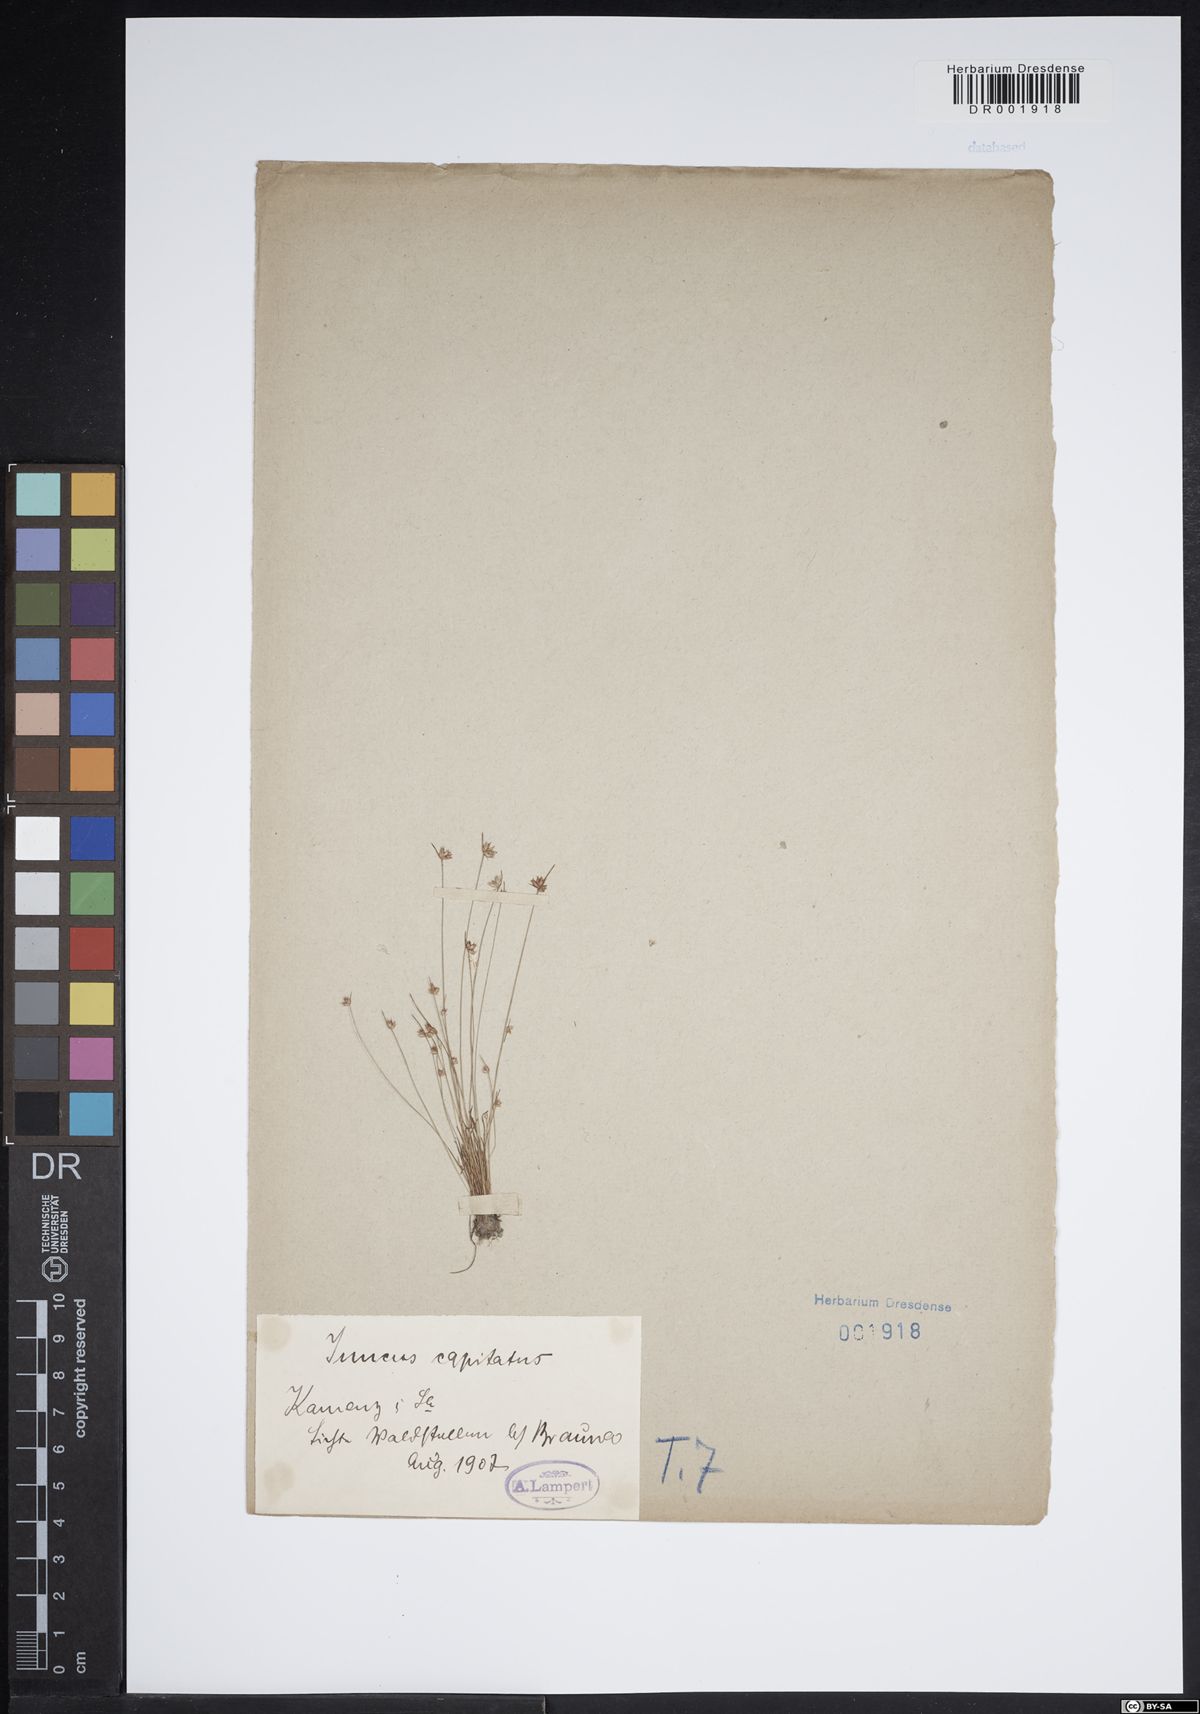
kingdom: Plantae
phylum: Tracheophyta
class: Liliopsida
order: Poales
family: Juncaceae
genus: Juncus
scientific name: Juncus capitatus
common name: Dwarf rush
